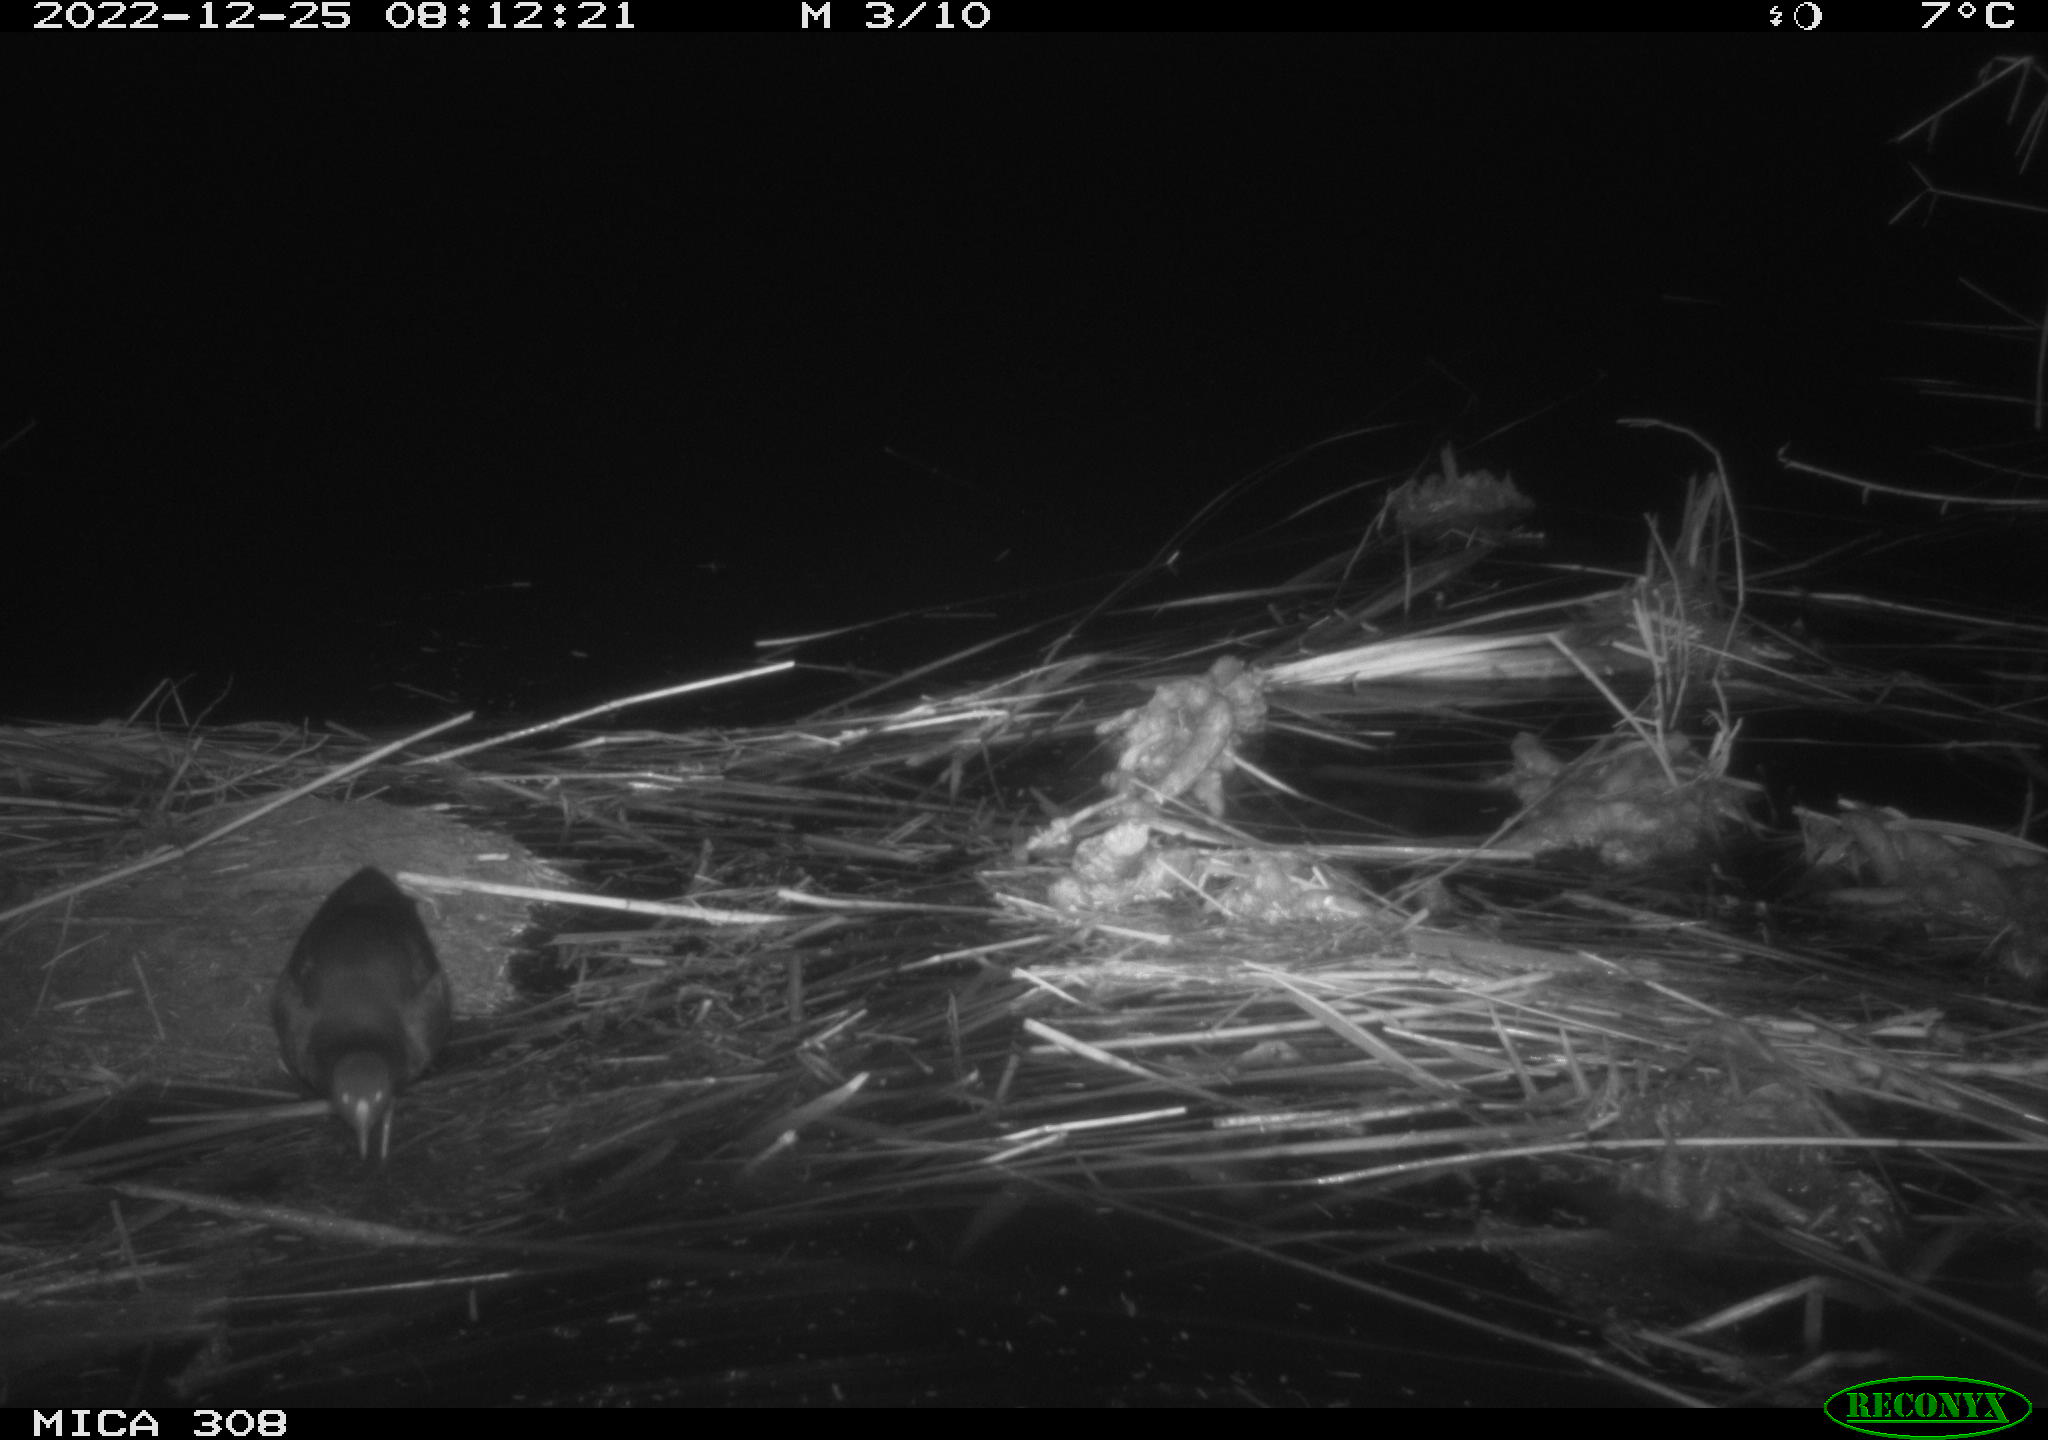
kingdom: Animalia
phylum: Chordata
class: Mammalia
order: Rodentia
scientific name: Rodentia
